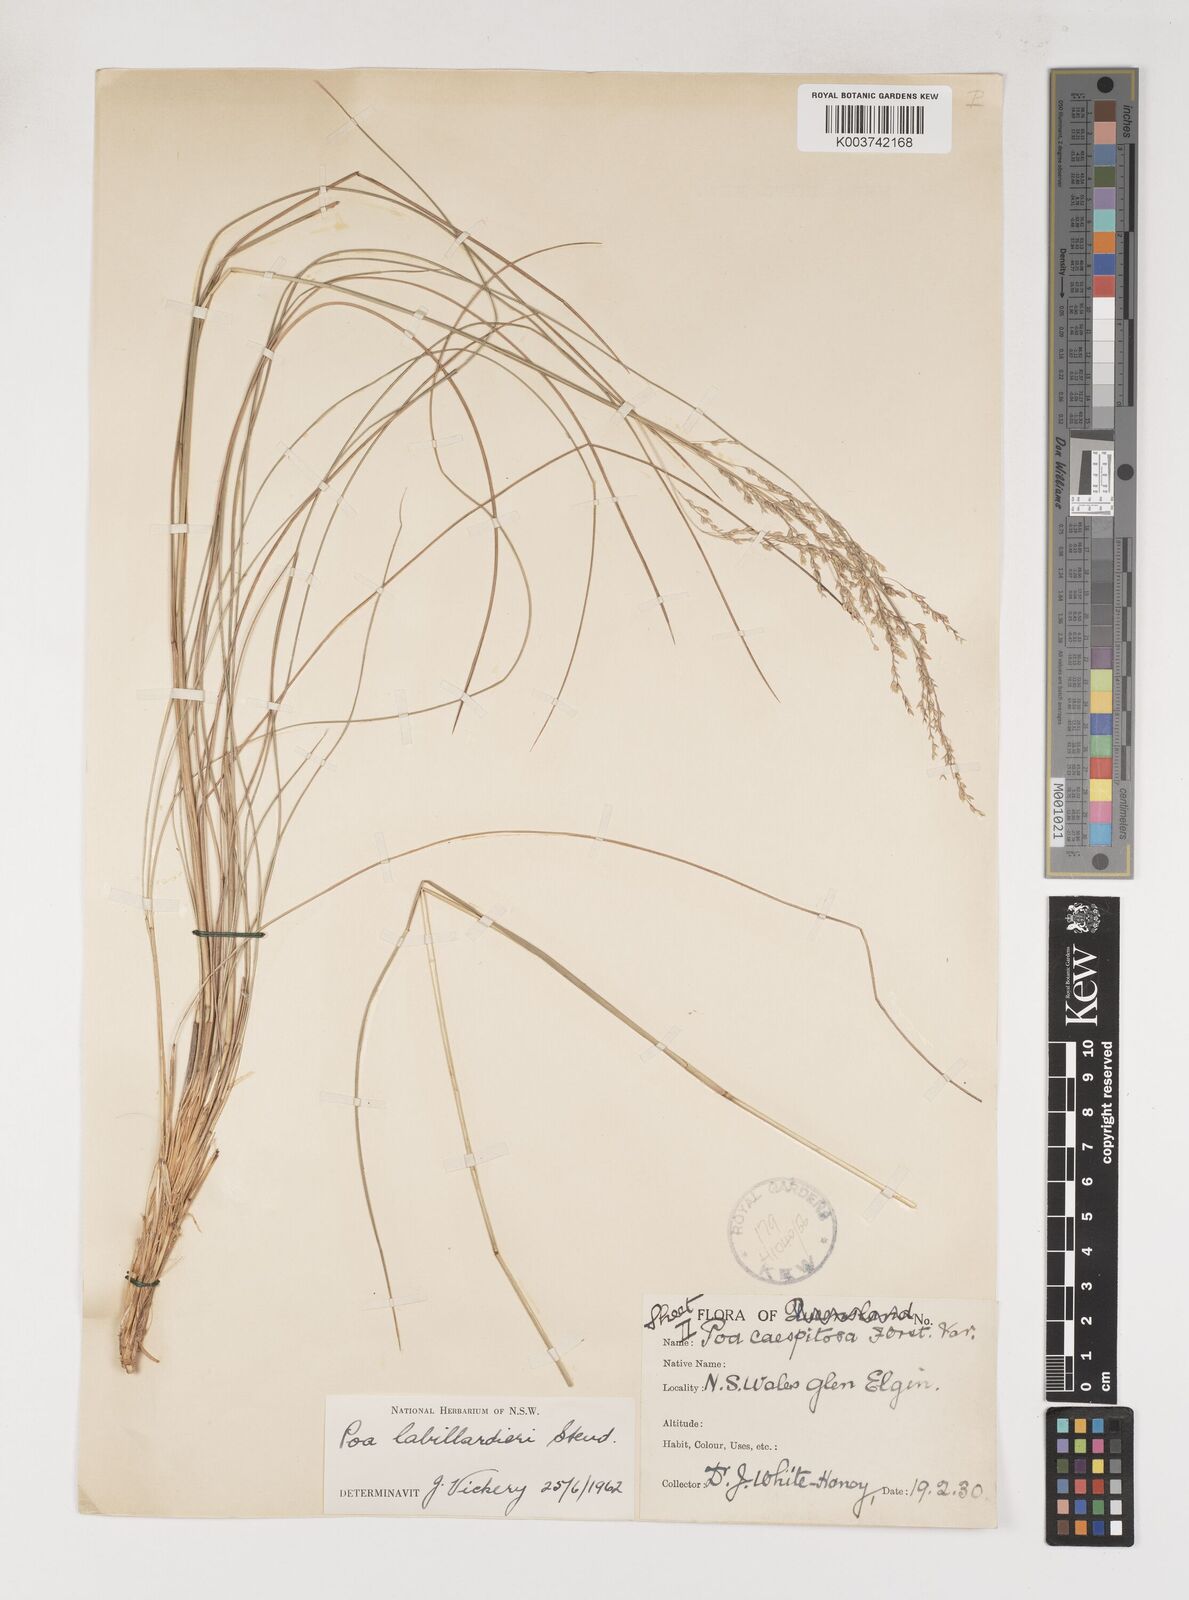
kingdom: Plantae
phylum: Tracheophyta
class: Liliopsida
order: Poales
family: Poaceae
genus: Poa
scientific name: Poa labillardierei
